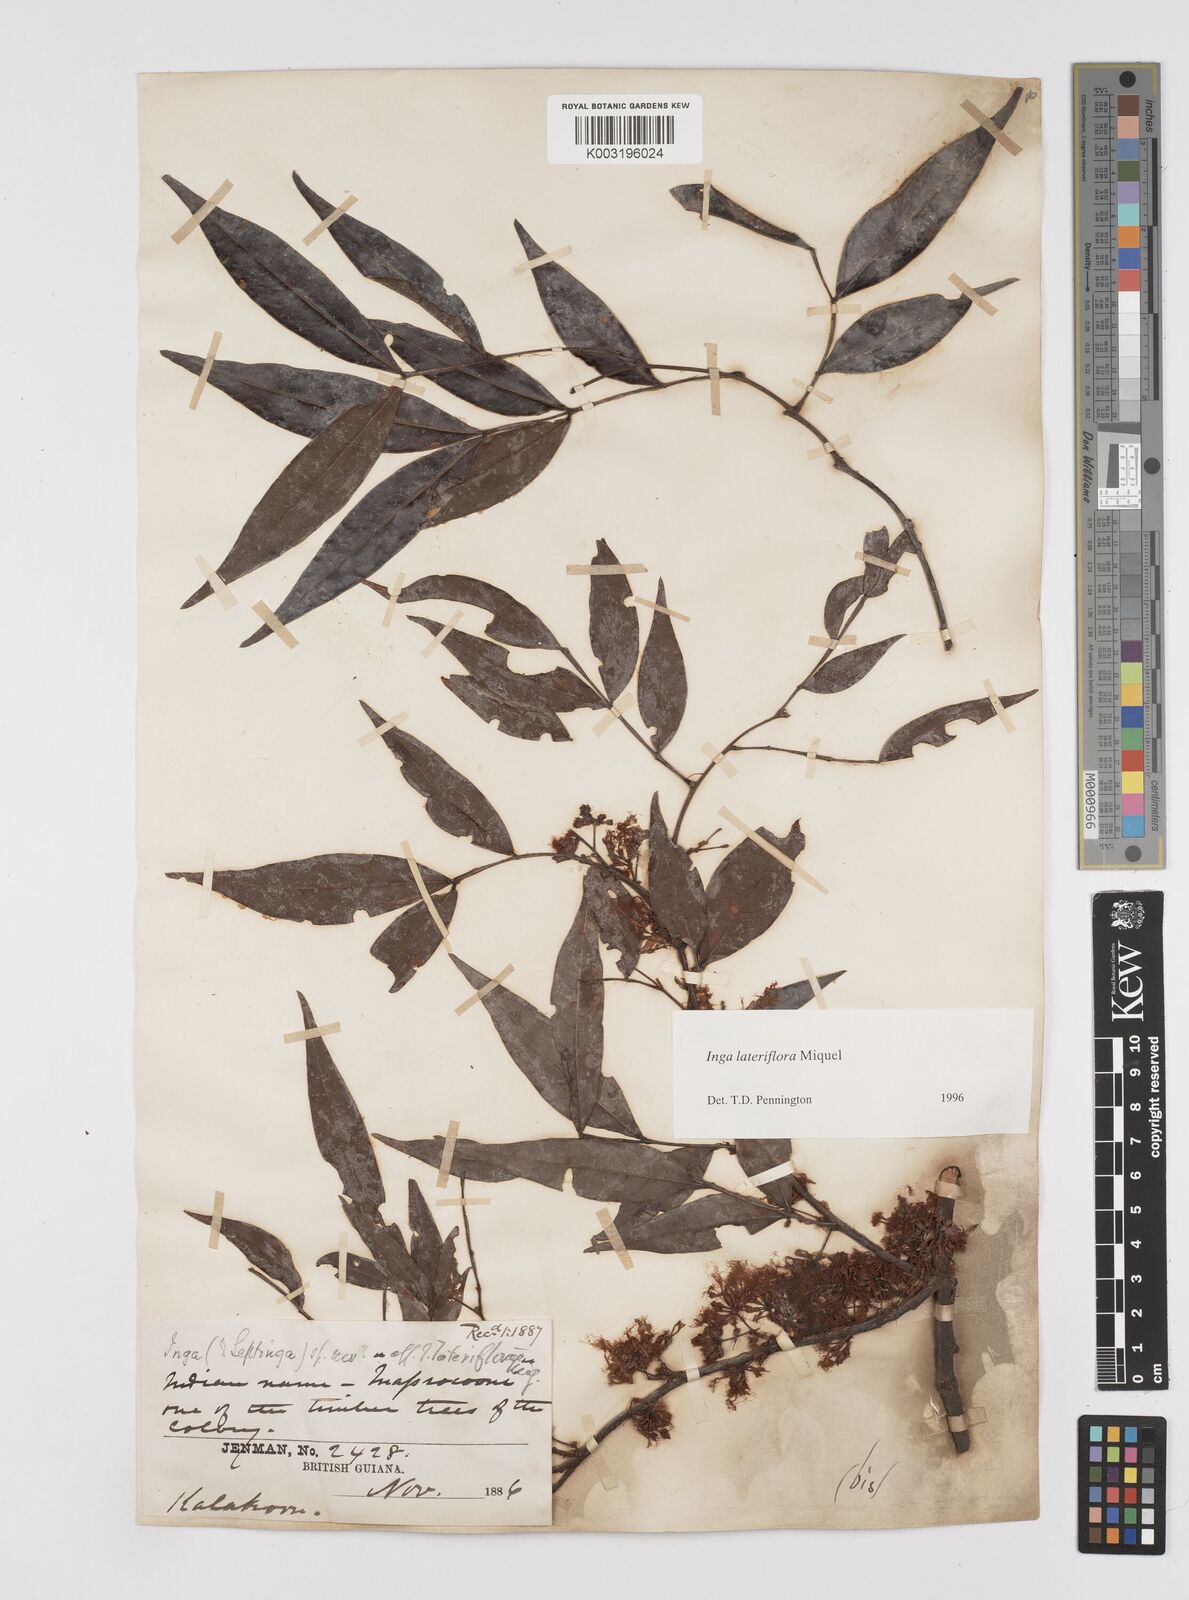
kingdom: Plantae
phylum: Tracheophyta
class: Magnoliopsida
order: Fabales
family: Fabaceae
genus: Inga
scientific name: Inga lateriflora
